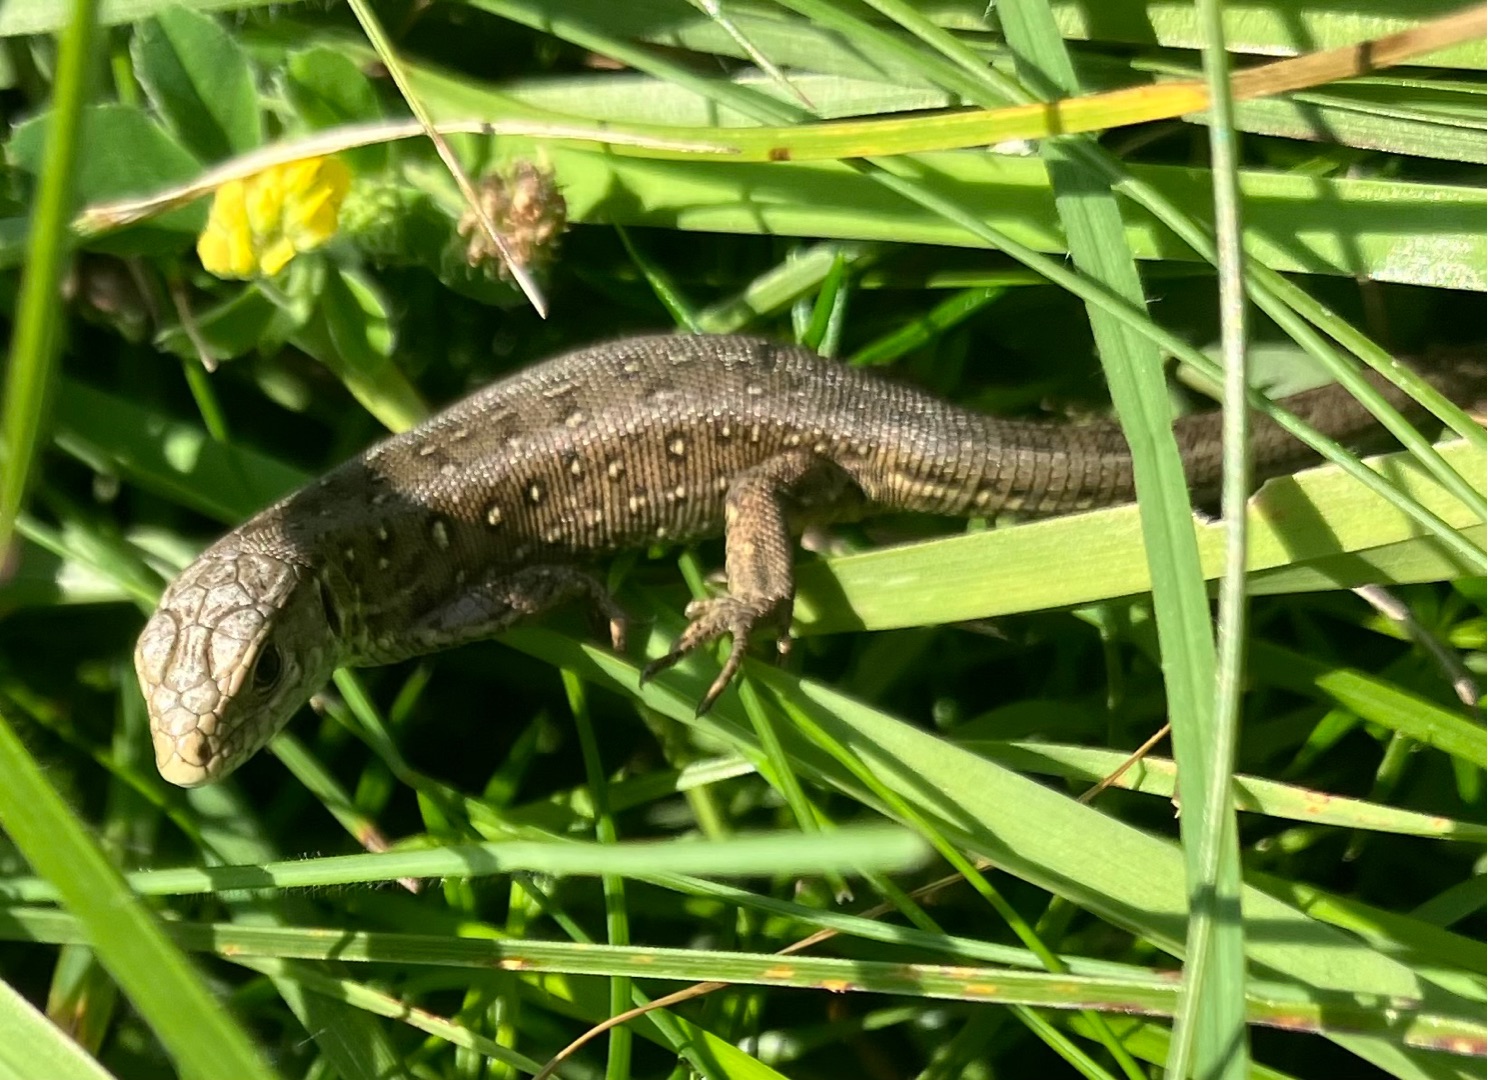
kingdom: Animalia
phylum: Chordata
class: Squamata
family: Lacertidae
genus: Lacerta
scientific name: Lacerta agilis
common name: Markfirben
